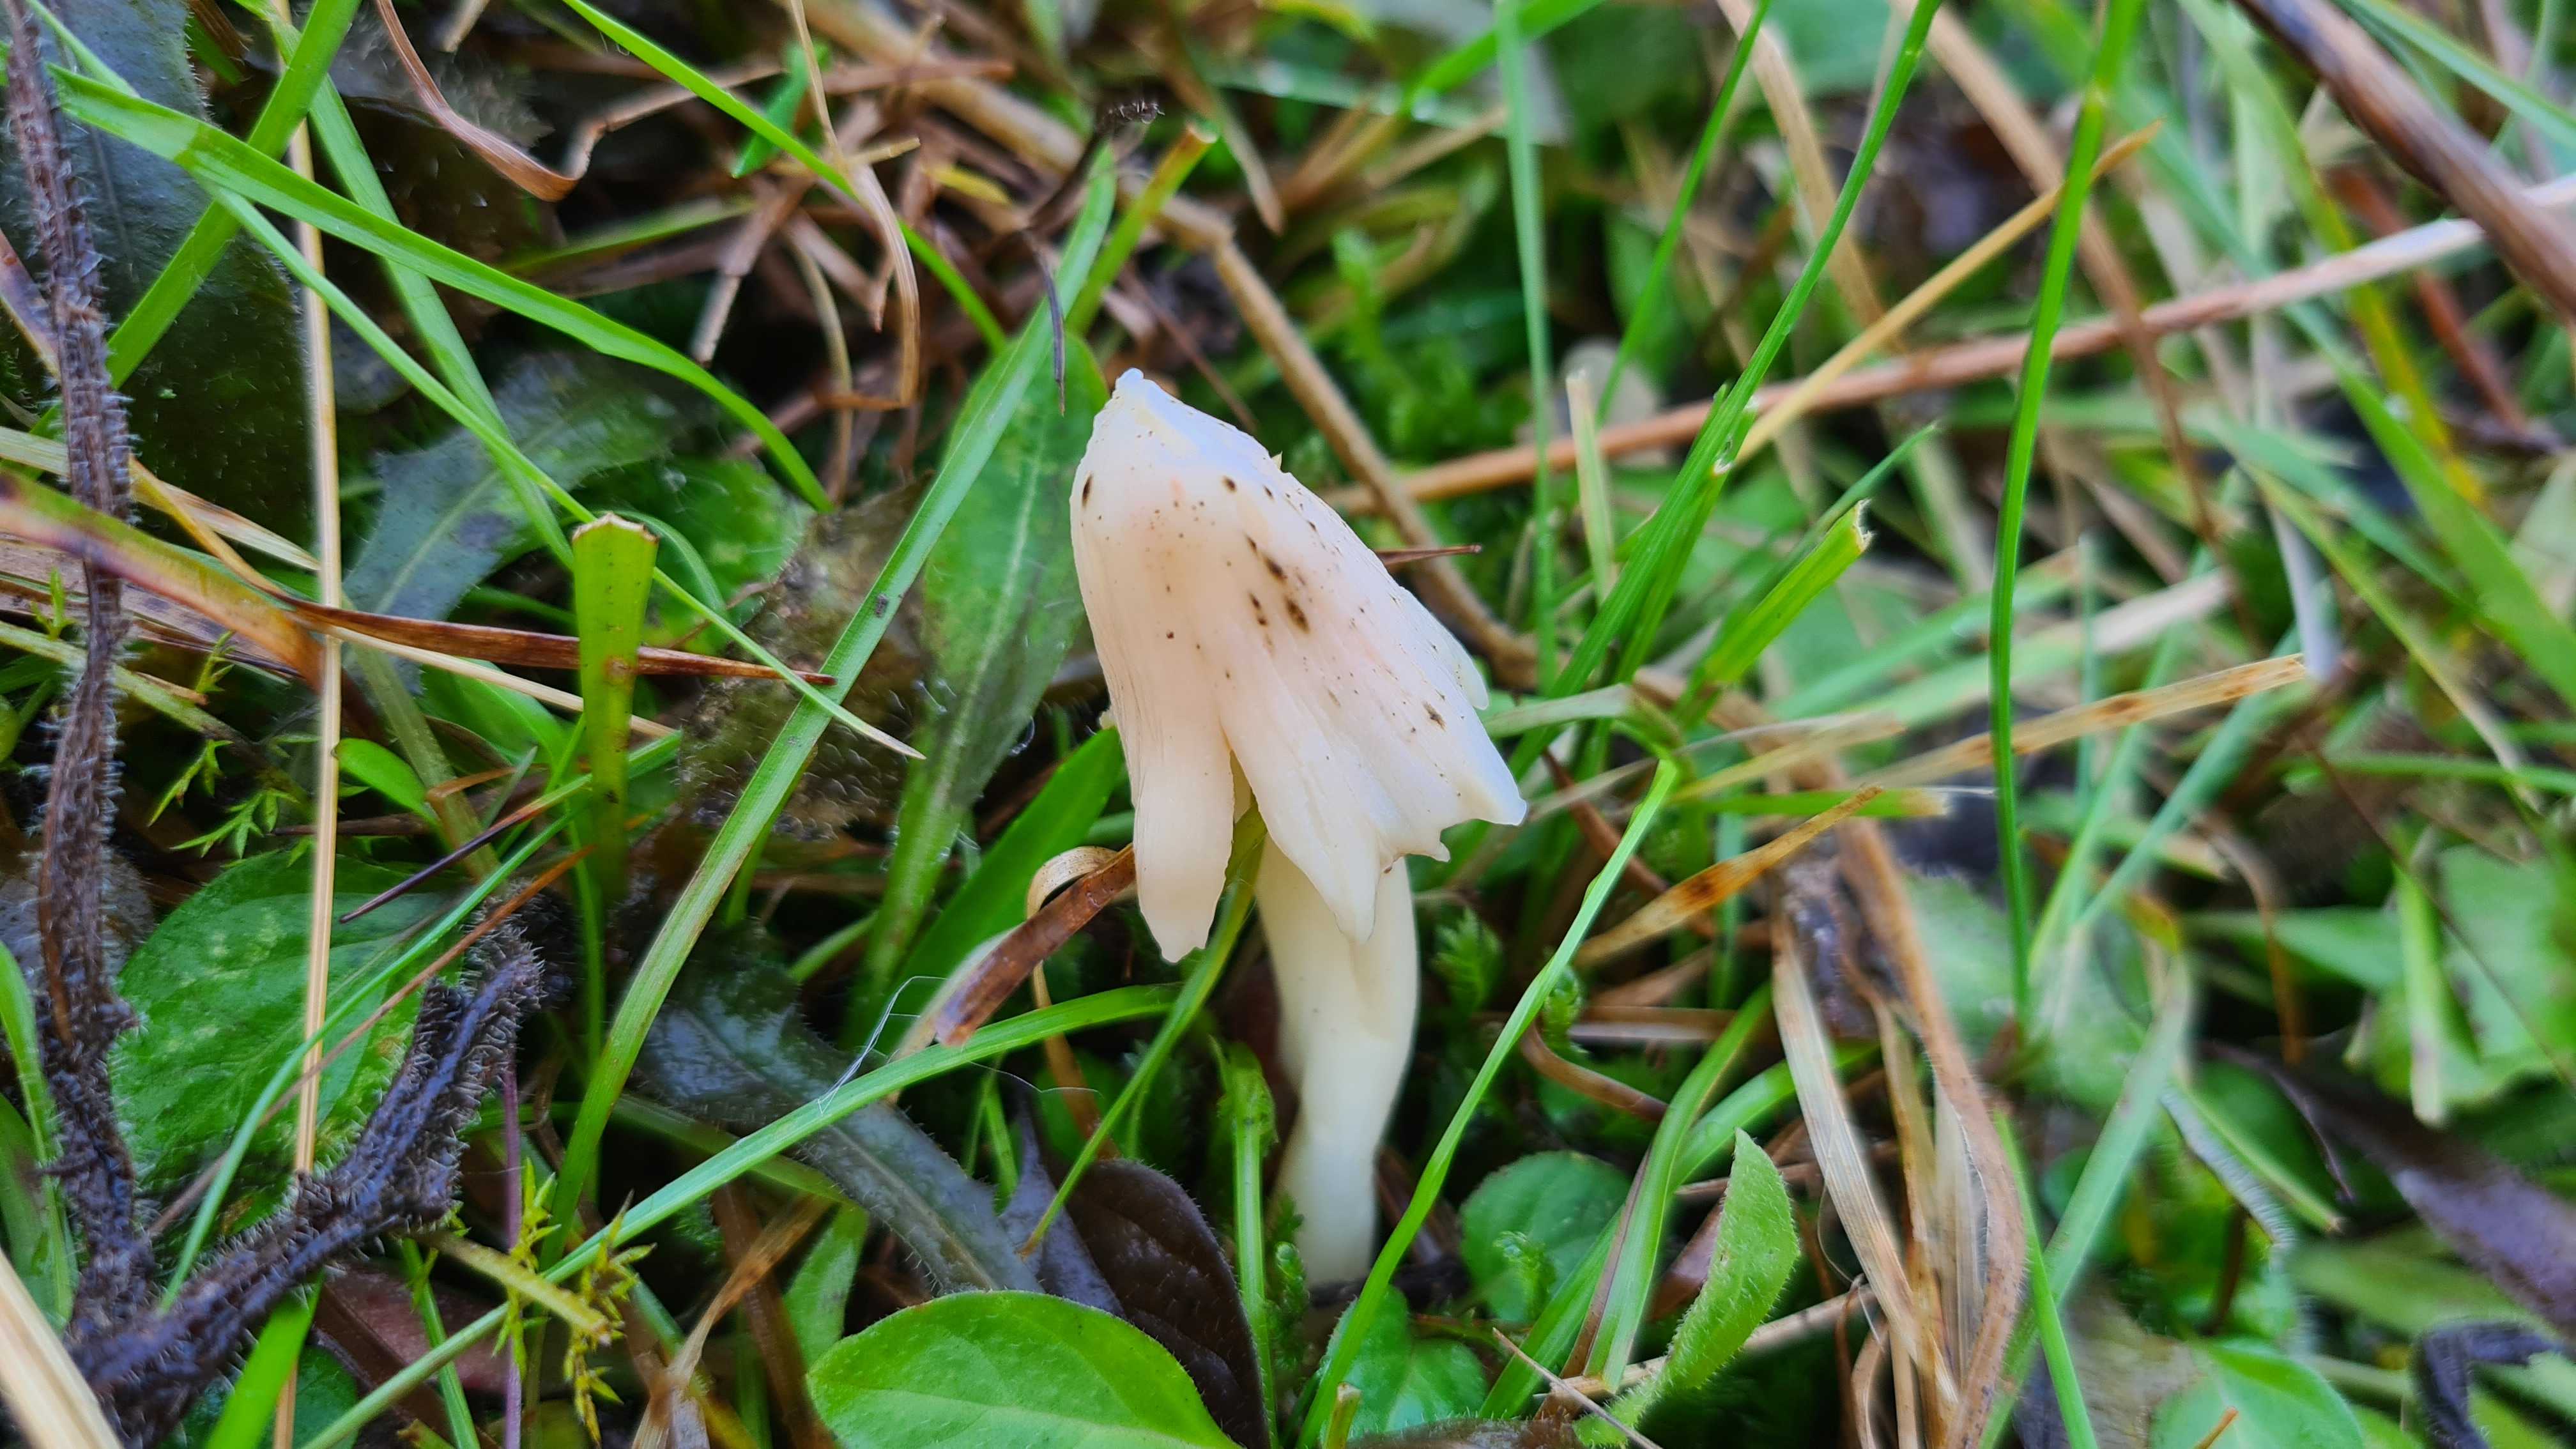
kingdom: Fungi
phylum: Basidiomycota
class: Agaricomycetes
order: Agaricales
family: Hygrophoraceae
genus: Porpolomopsis
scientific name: Porpolomopsis calyptriformis
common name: rosenrød vokshat
